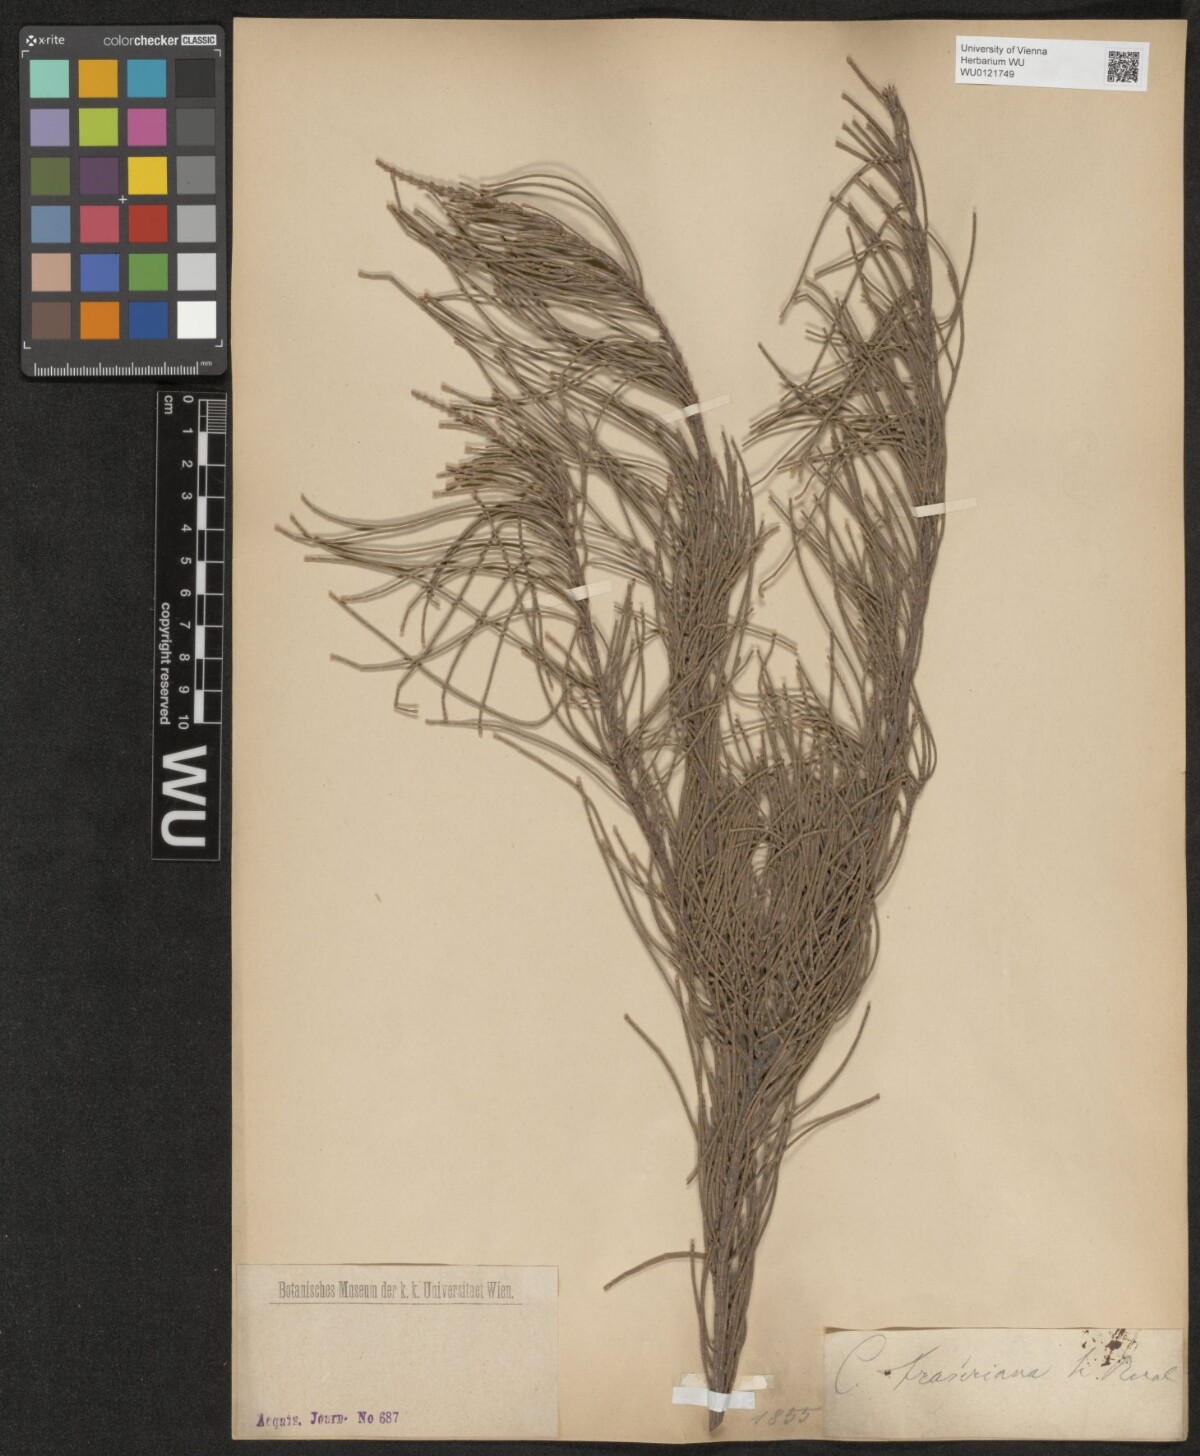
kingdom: Plantae
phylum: Tracheophyta
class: Magnoliopsida
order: Fagales
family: Casuarinaceae
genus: Casuarina
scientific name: Casuarina
